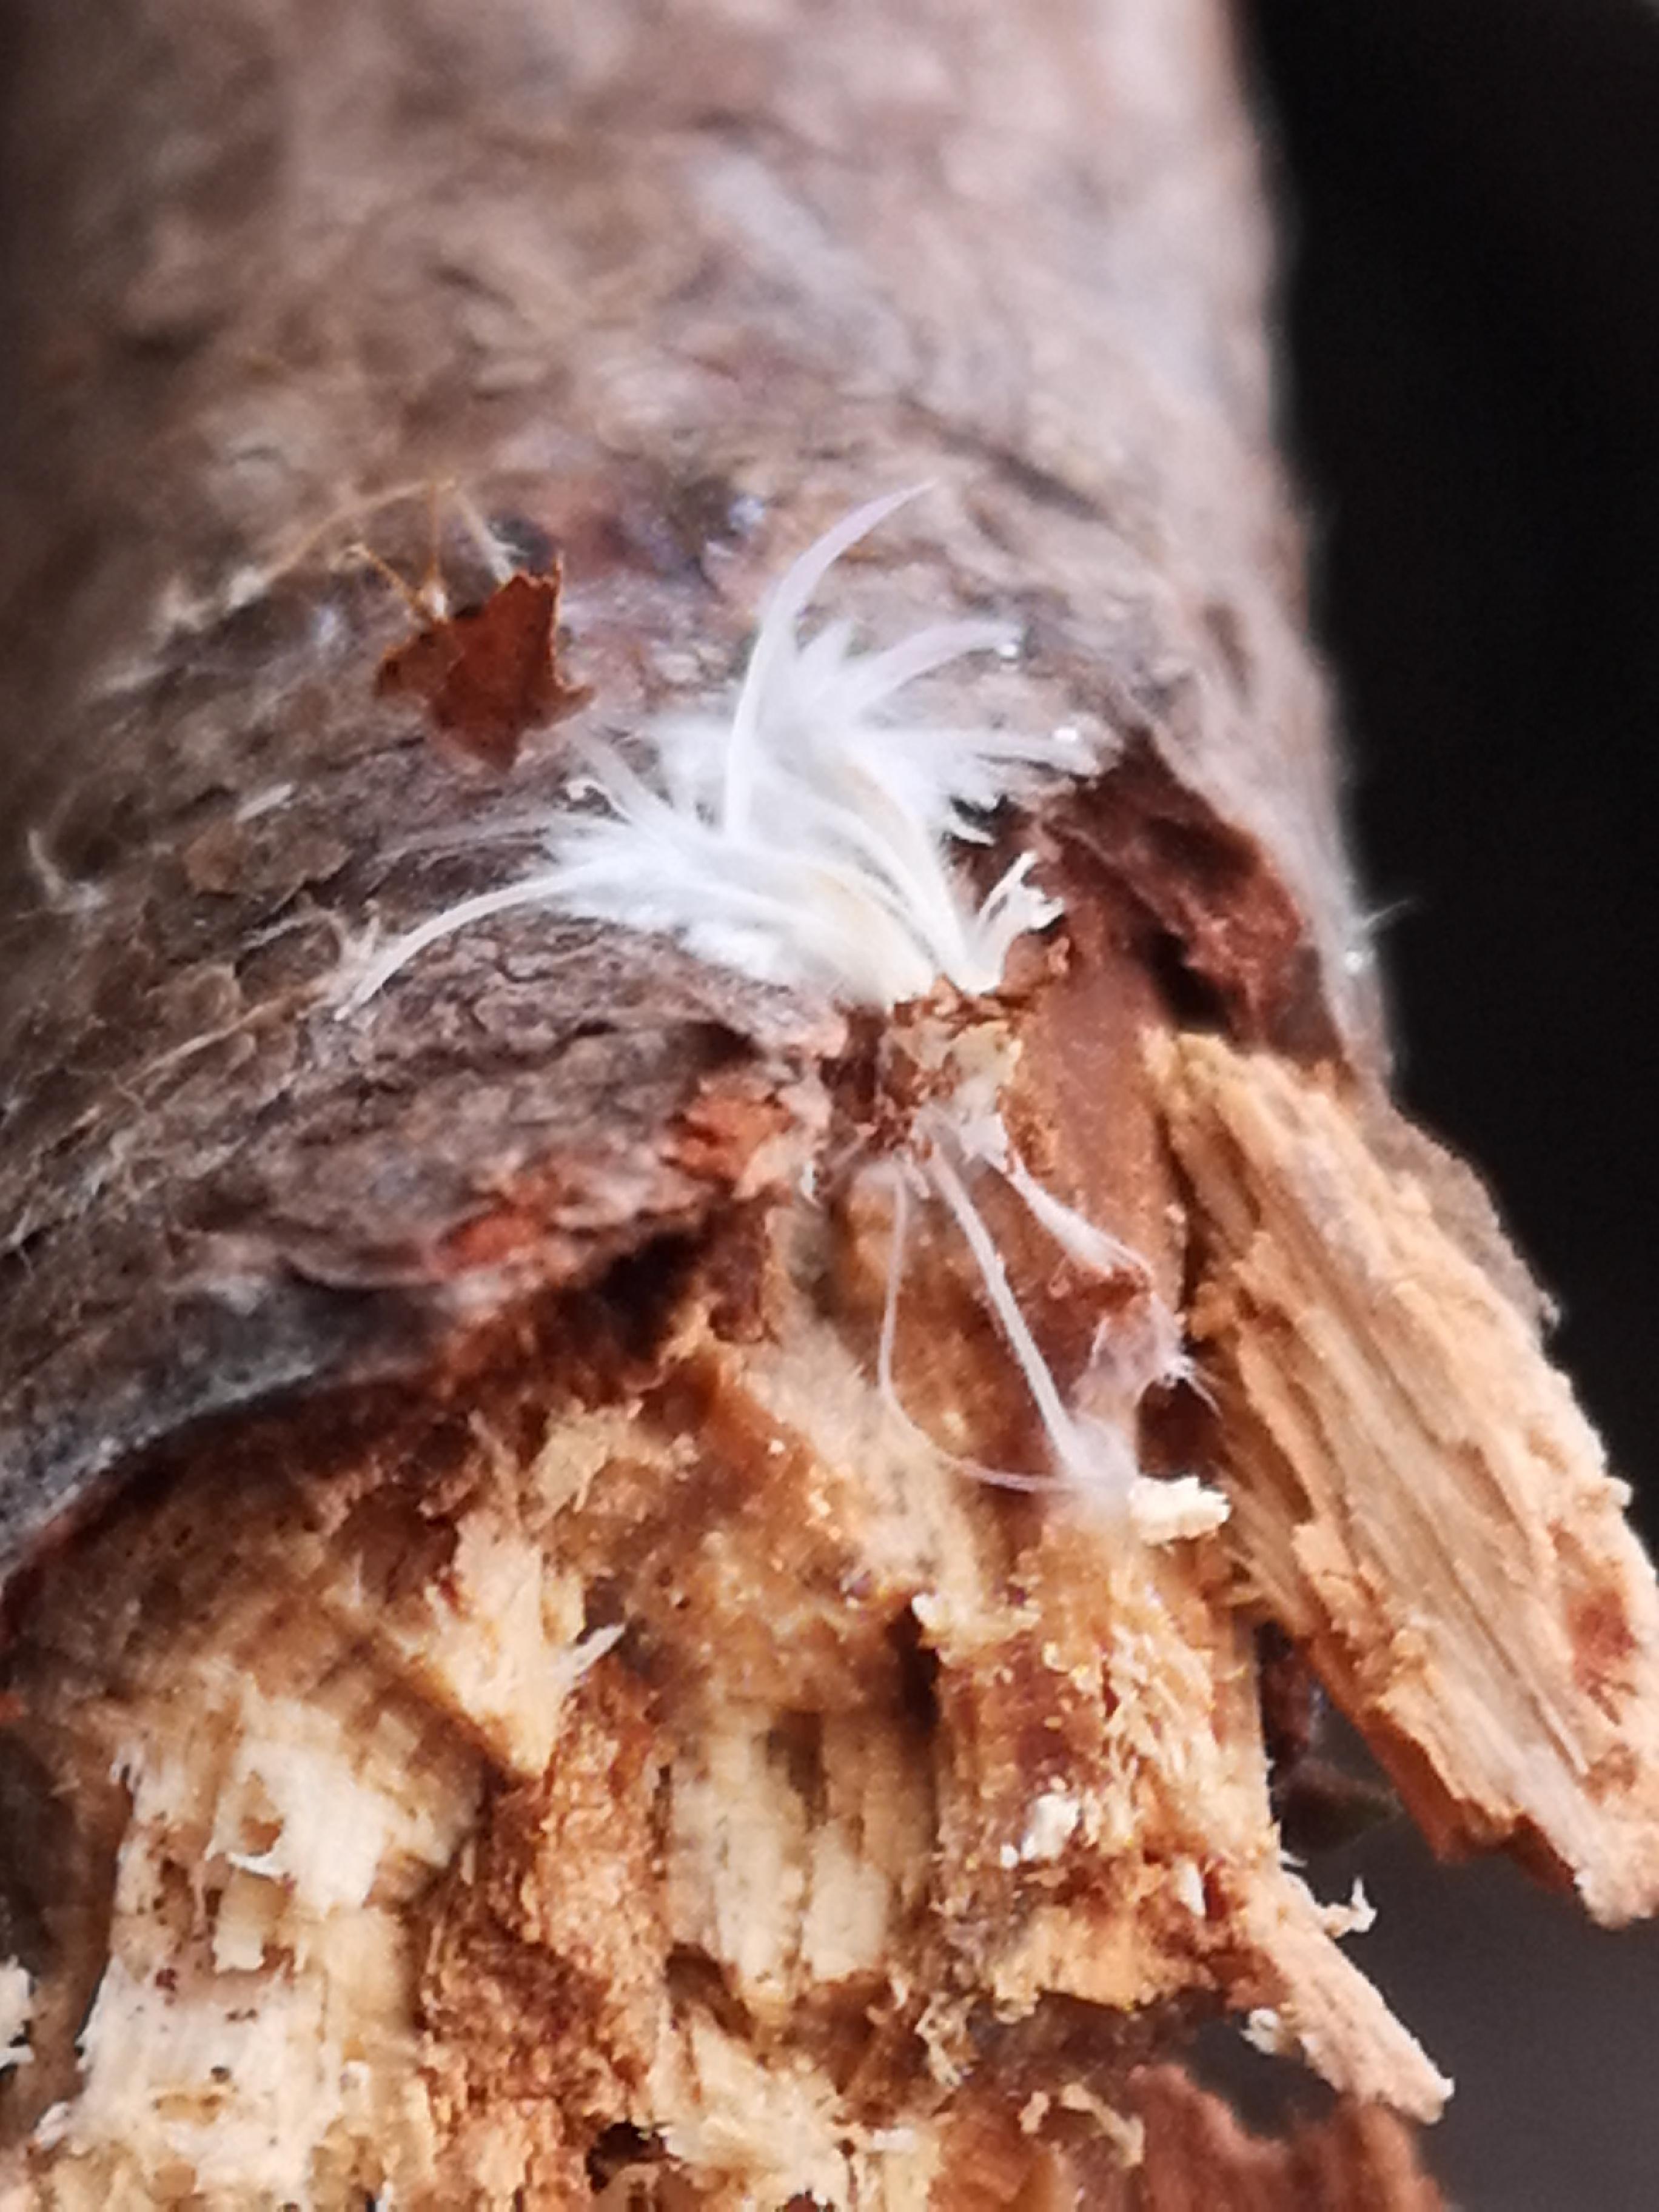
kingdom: Fungi
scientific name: Fungi
